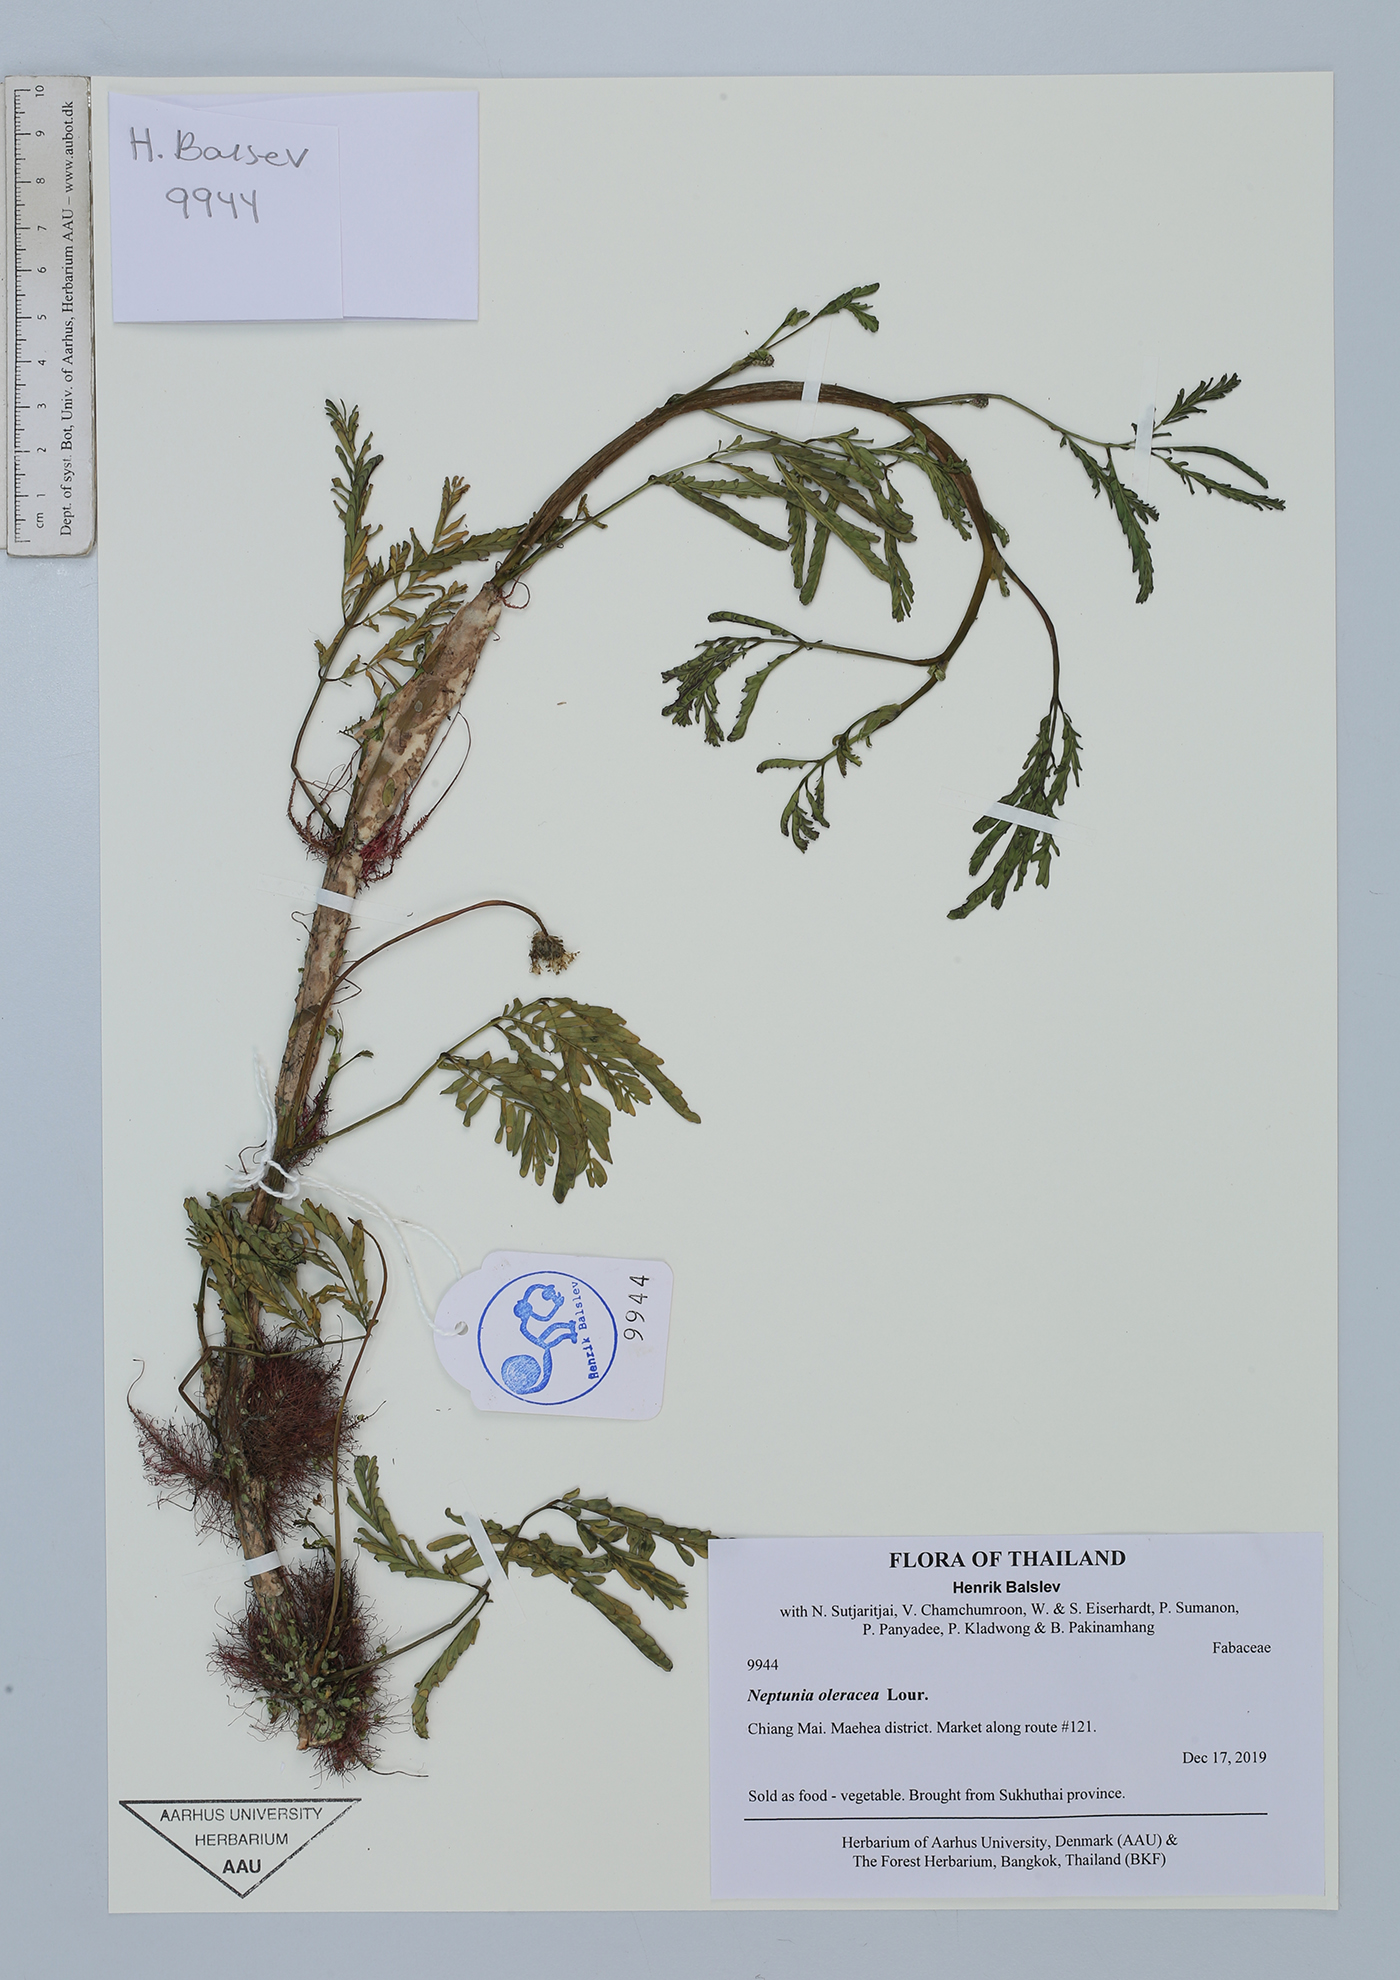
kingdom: Plantae
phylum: Tracheophyta
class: Magnoliopsida
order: Fabales
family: Fabaceae
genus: Neptunia
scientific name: Neptunia prostrata
